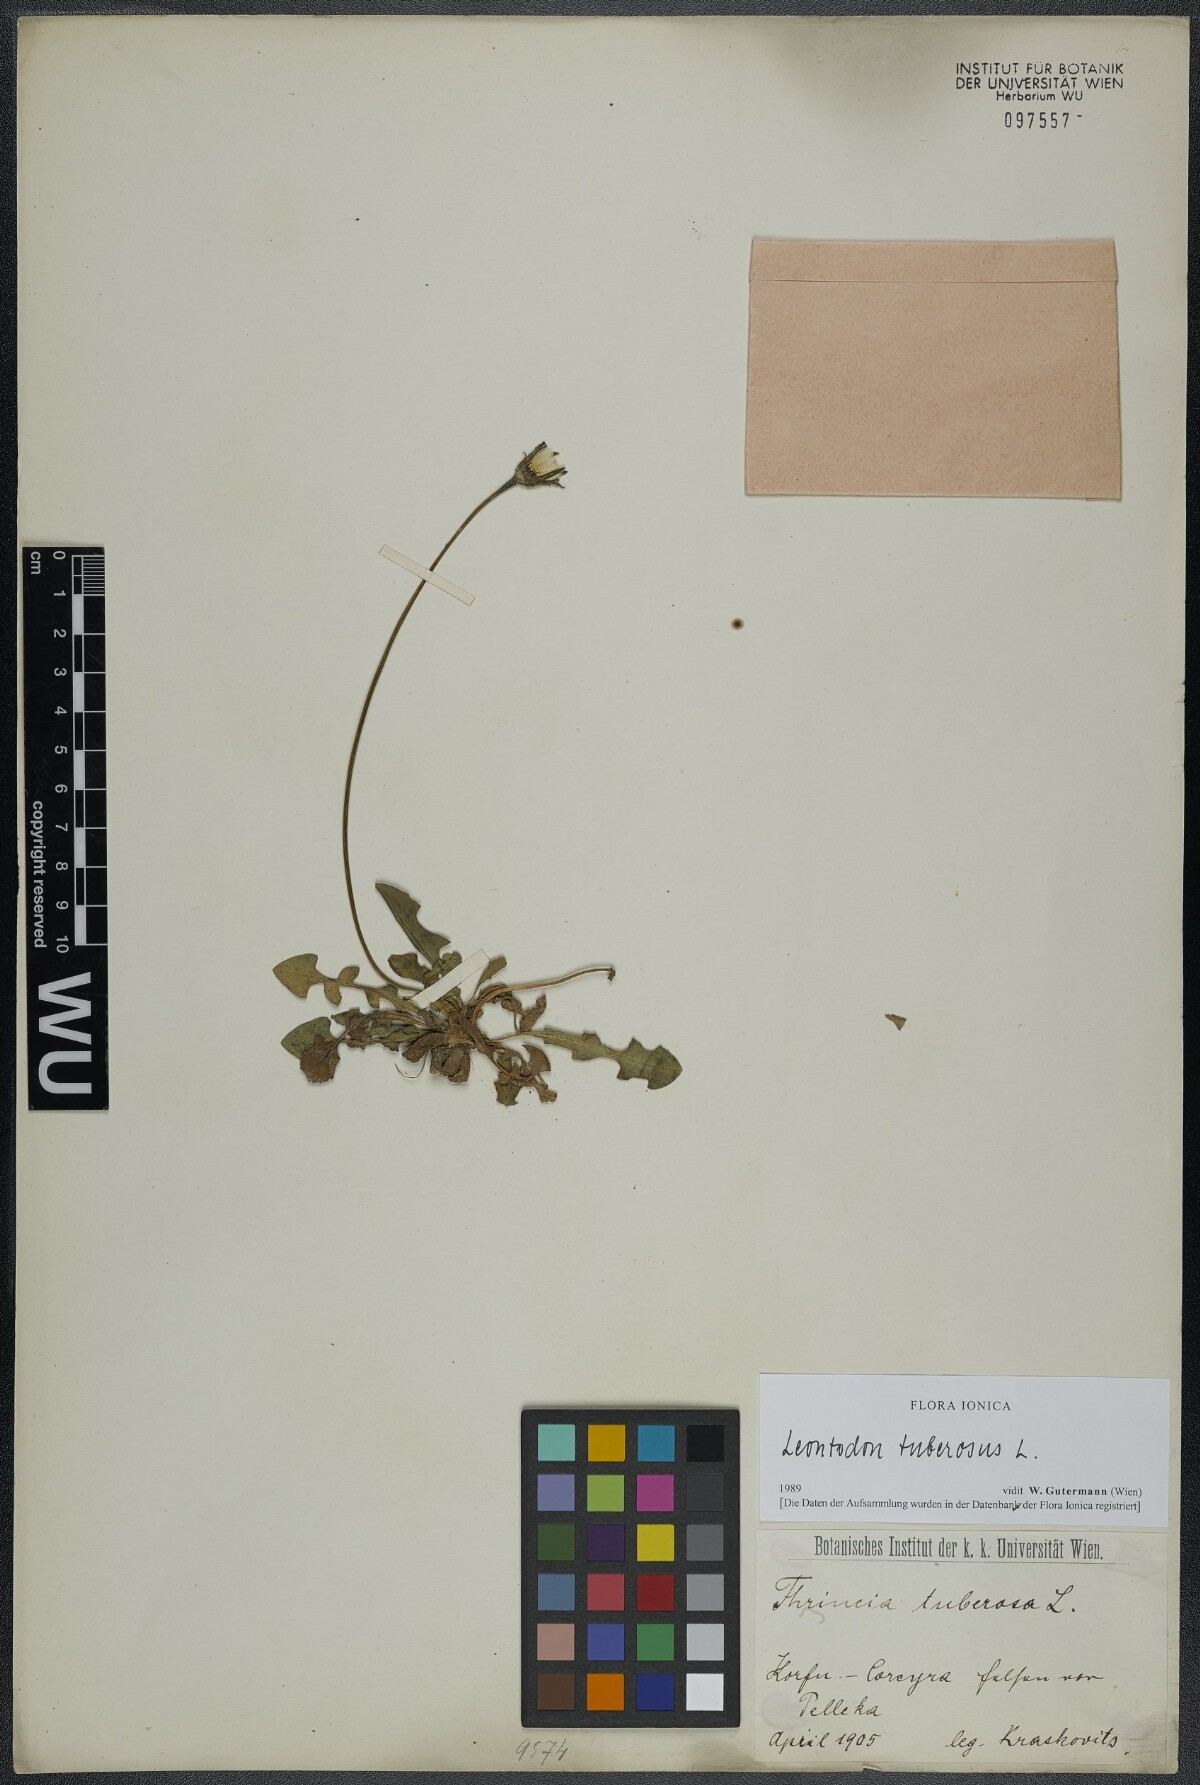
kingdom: Plantae
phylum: Tracheophyta
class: Magnoliopsida
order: Asterales
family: Asteraceae
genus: Thrincia
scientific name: Thrincia tuberosa
